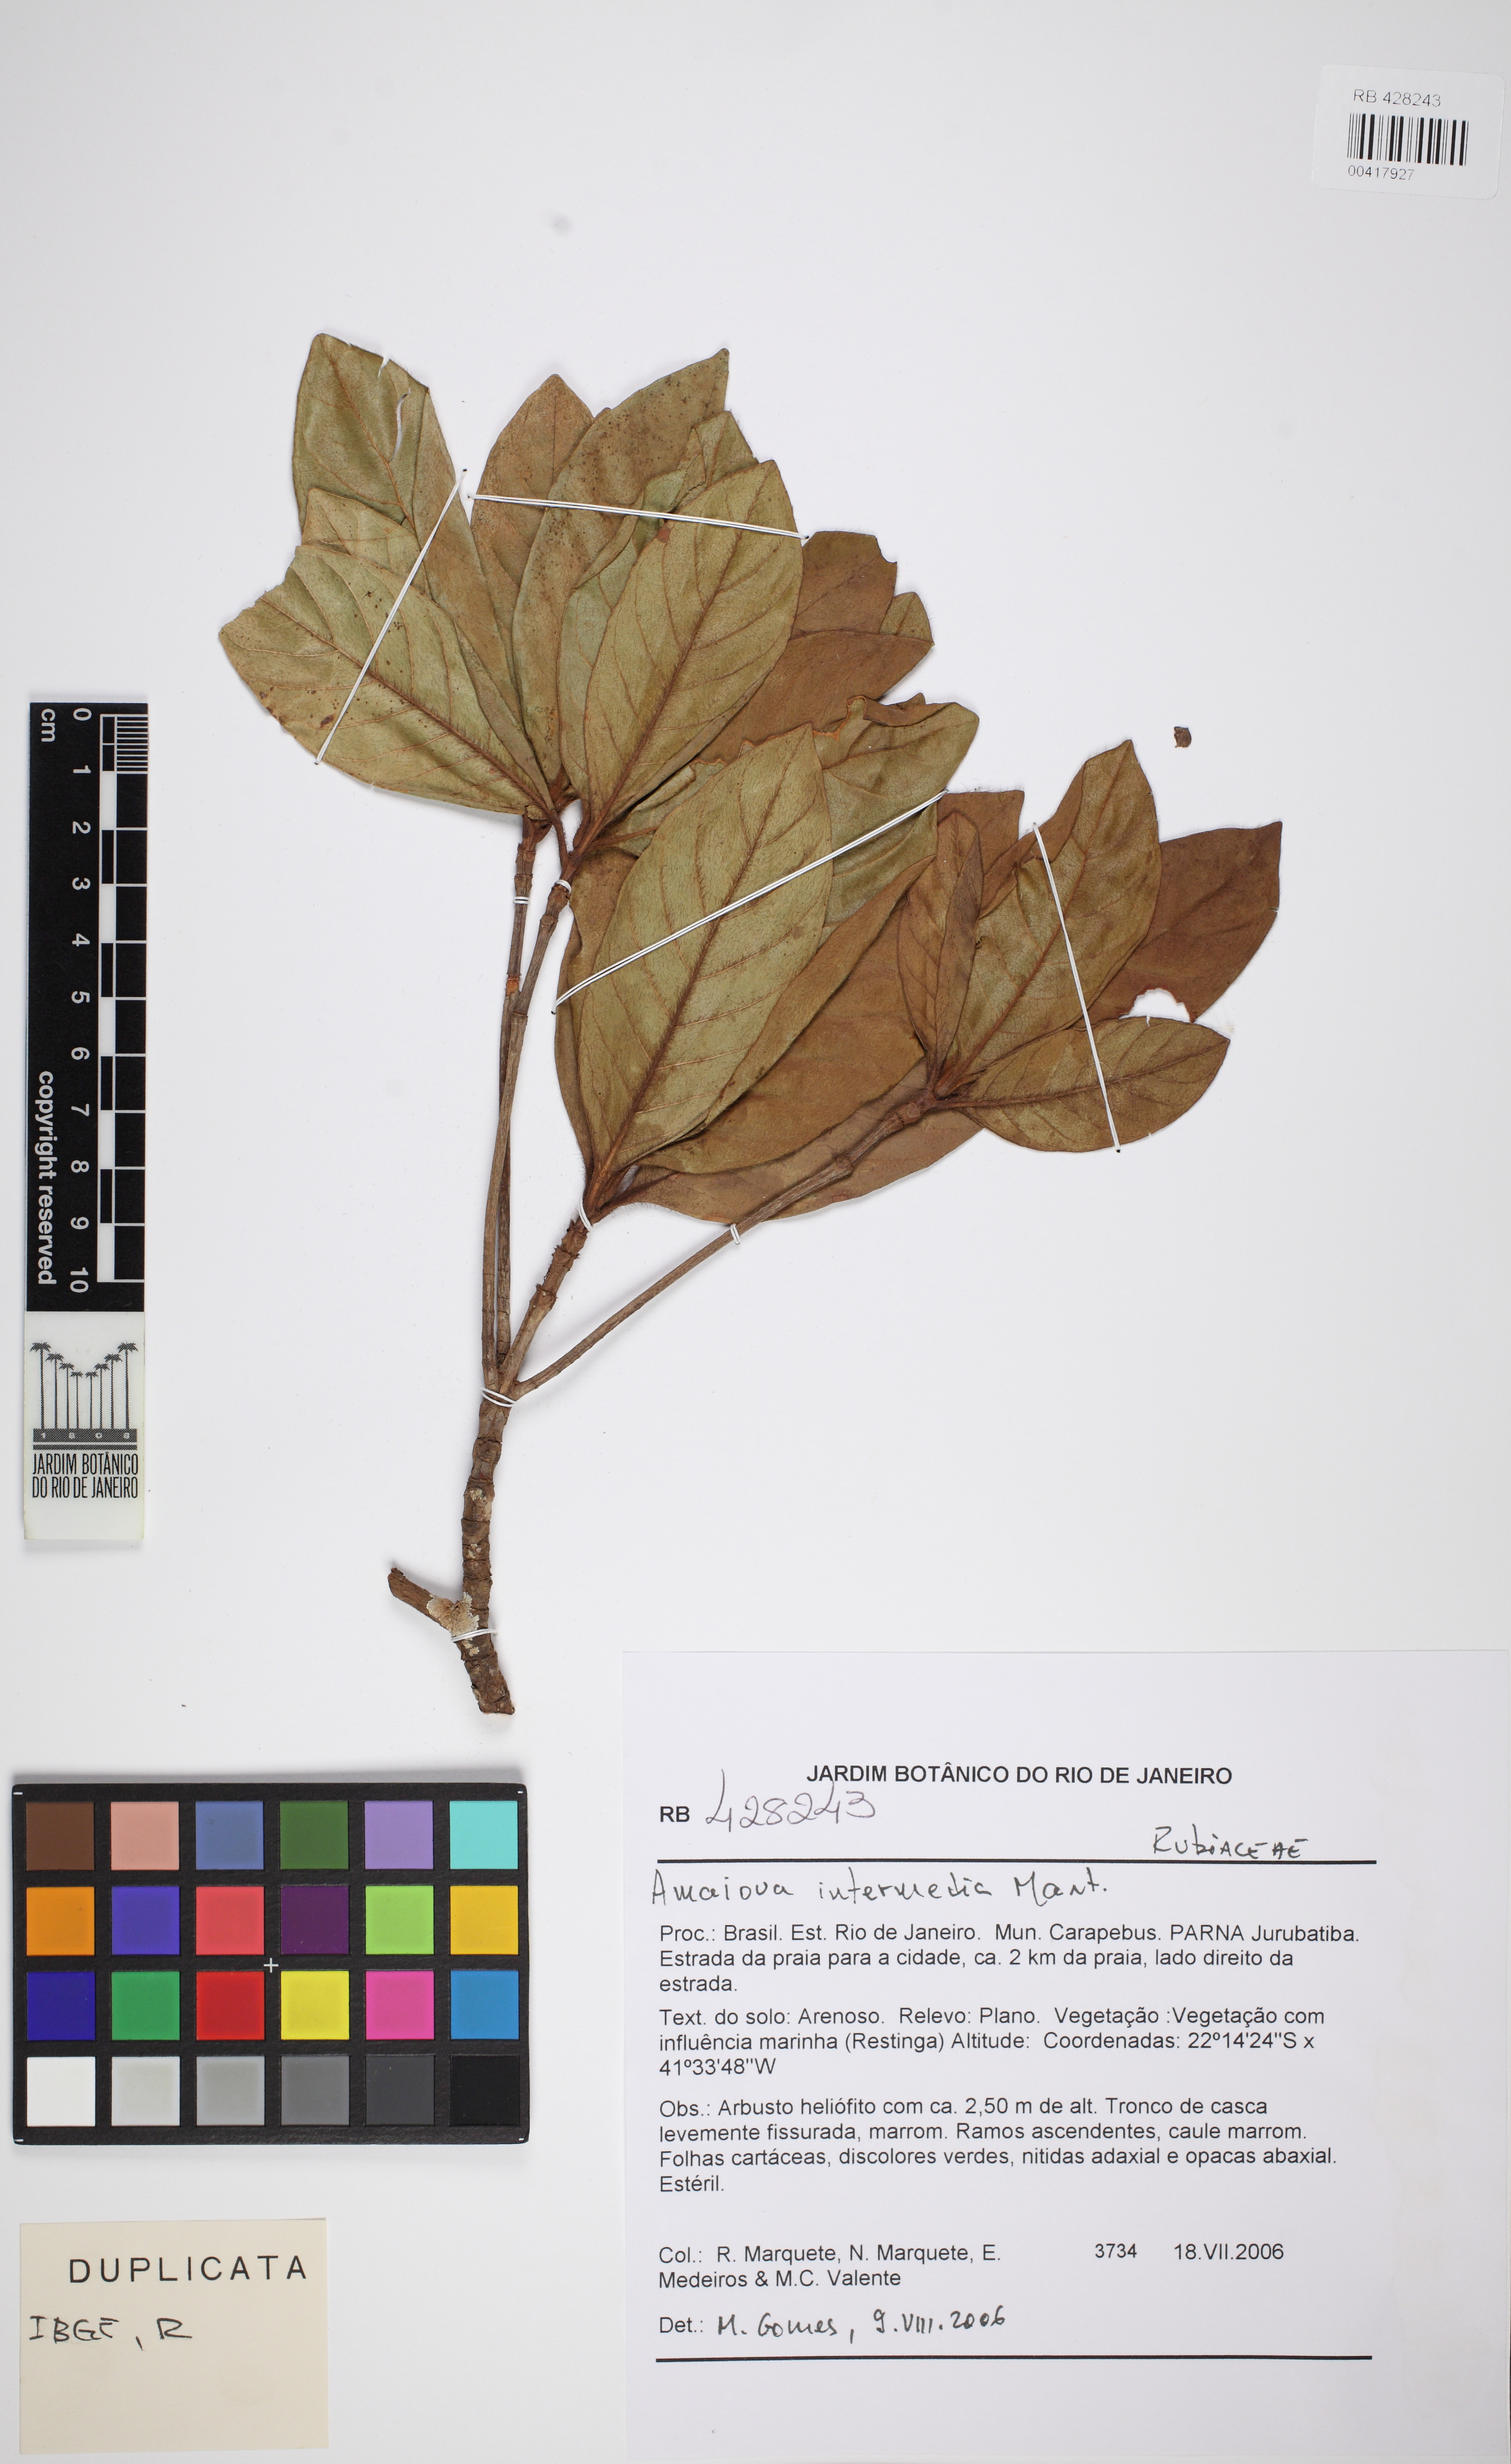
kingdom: Plantae
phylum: Tracheophyta
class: Magnoliopsida
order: Gentianales
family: Rubiaceae
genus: Amaioua
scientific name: Amaioua intermedia
